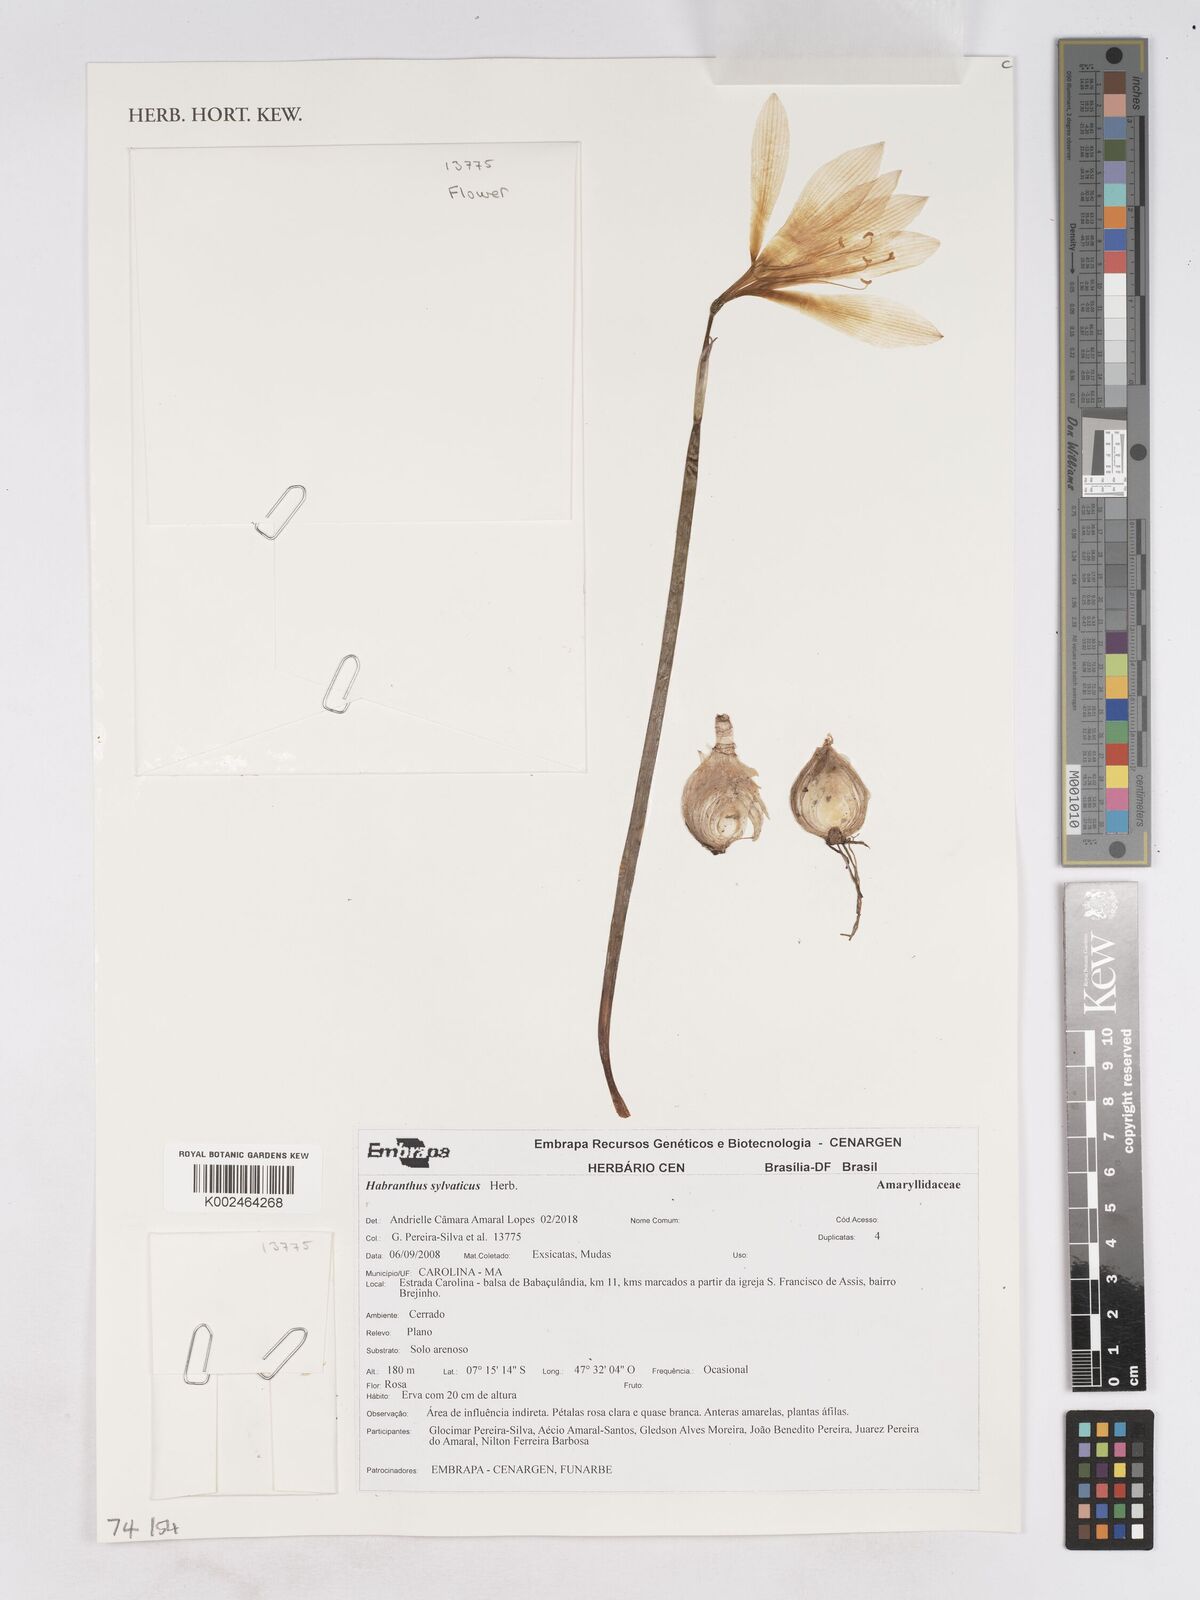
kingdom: Plantae
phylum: Tracheophyta
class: Liliopsida
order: Asparagales
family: Amaryllidaceae
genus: Zephyranthes
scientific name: Zephyranthes sylvatica
